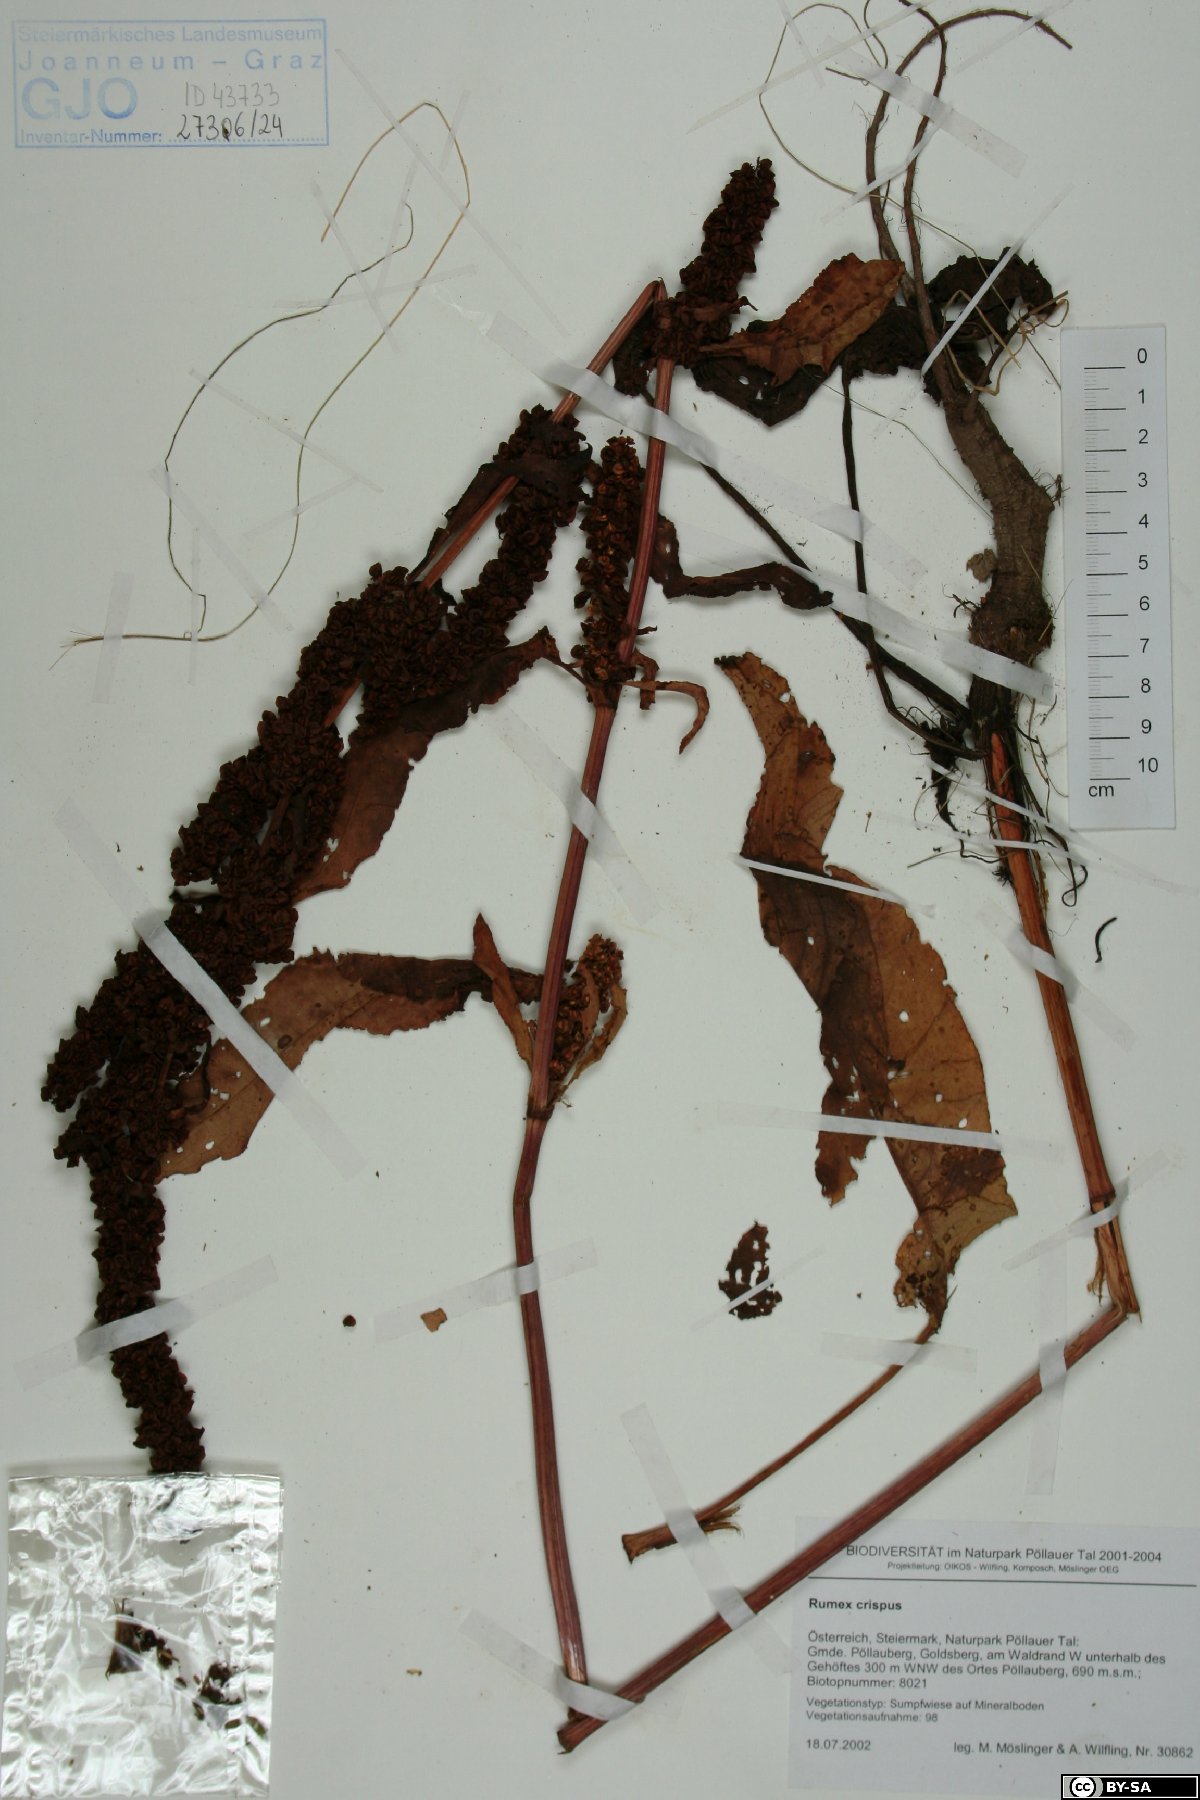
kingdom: Plantae
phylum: Tracheophyta
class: Magnoliopsida
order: Caryophyllales
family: Polygonaceae
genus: Rumex
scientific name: Rumex crispus
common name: Curled dock
